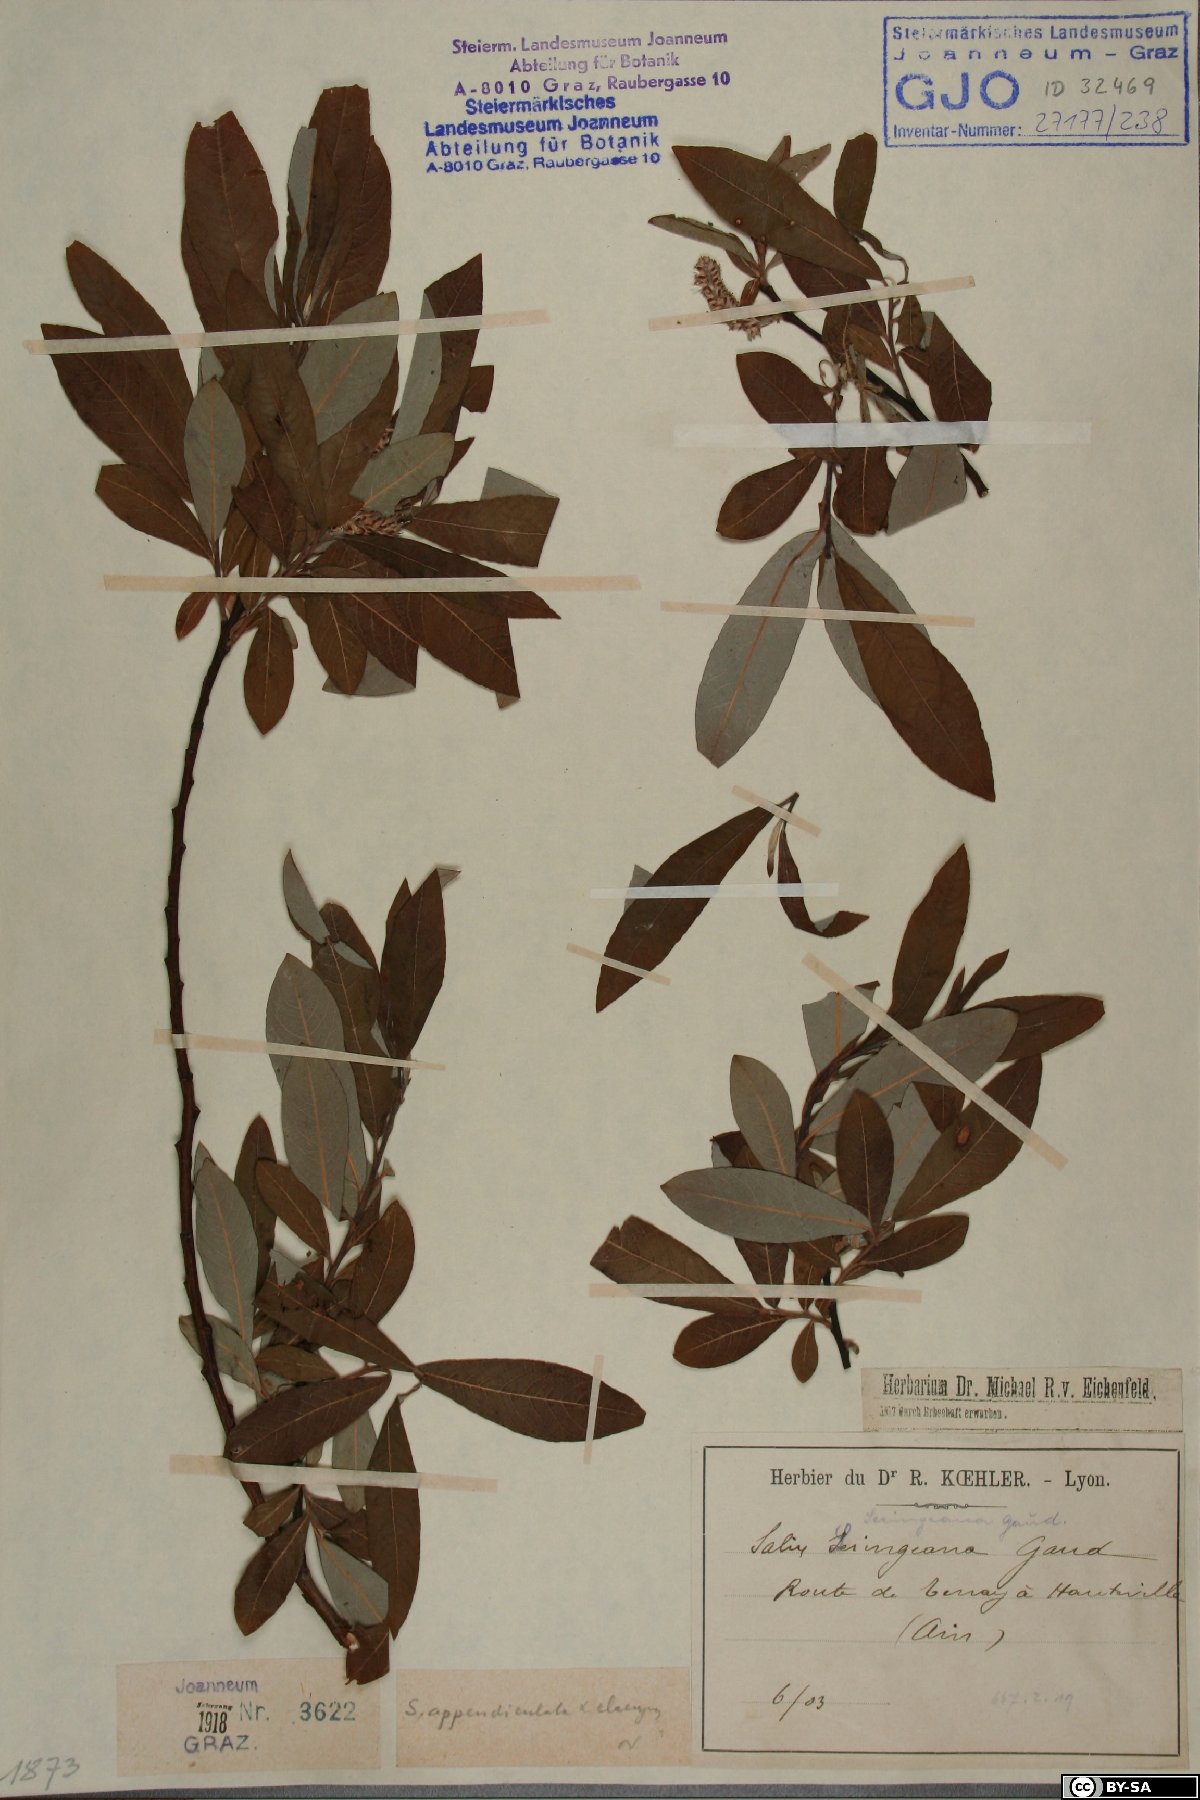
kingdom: Plantae
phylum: Tracheophyta
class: Magnoliopsida
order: Malpighiales
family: Salicaceae
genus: Salix
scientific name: Salix seringeana
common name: Seringe willow
